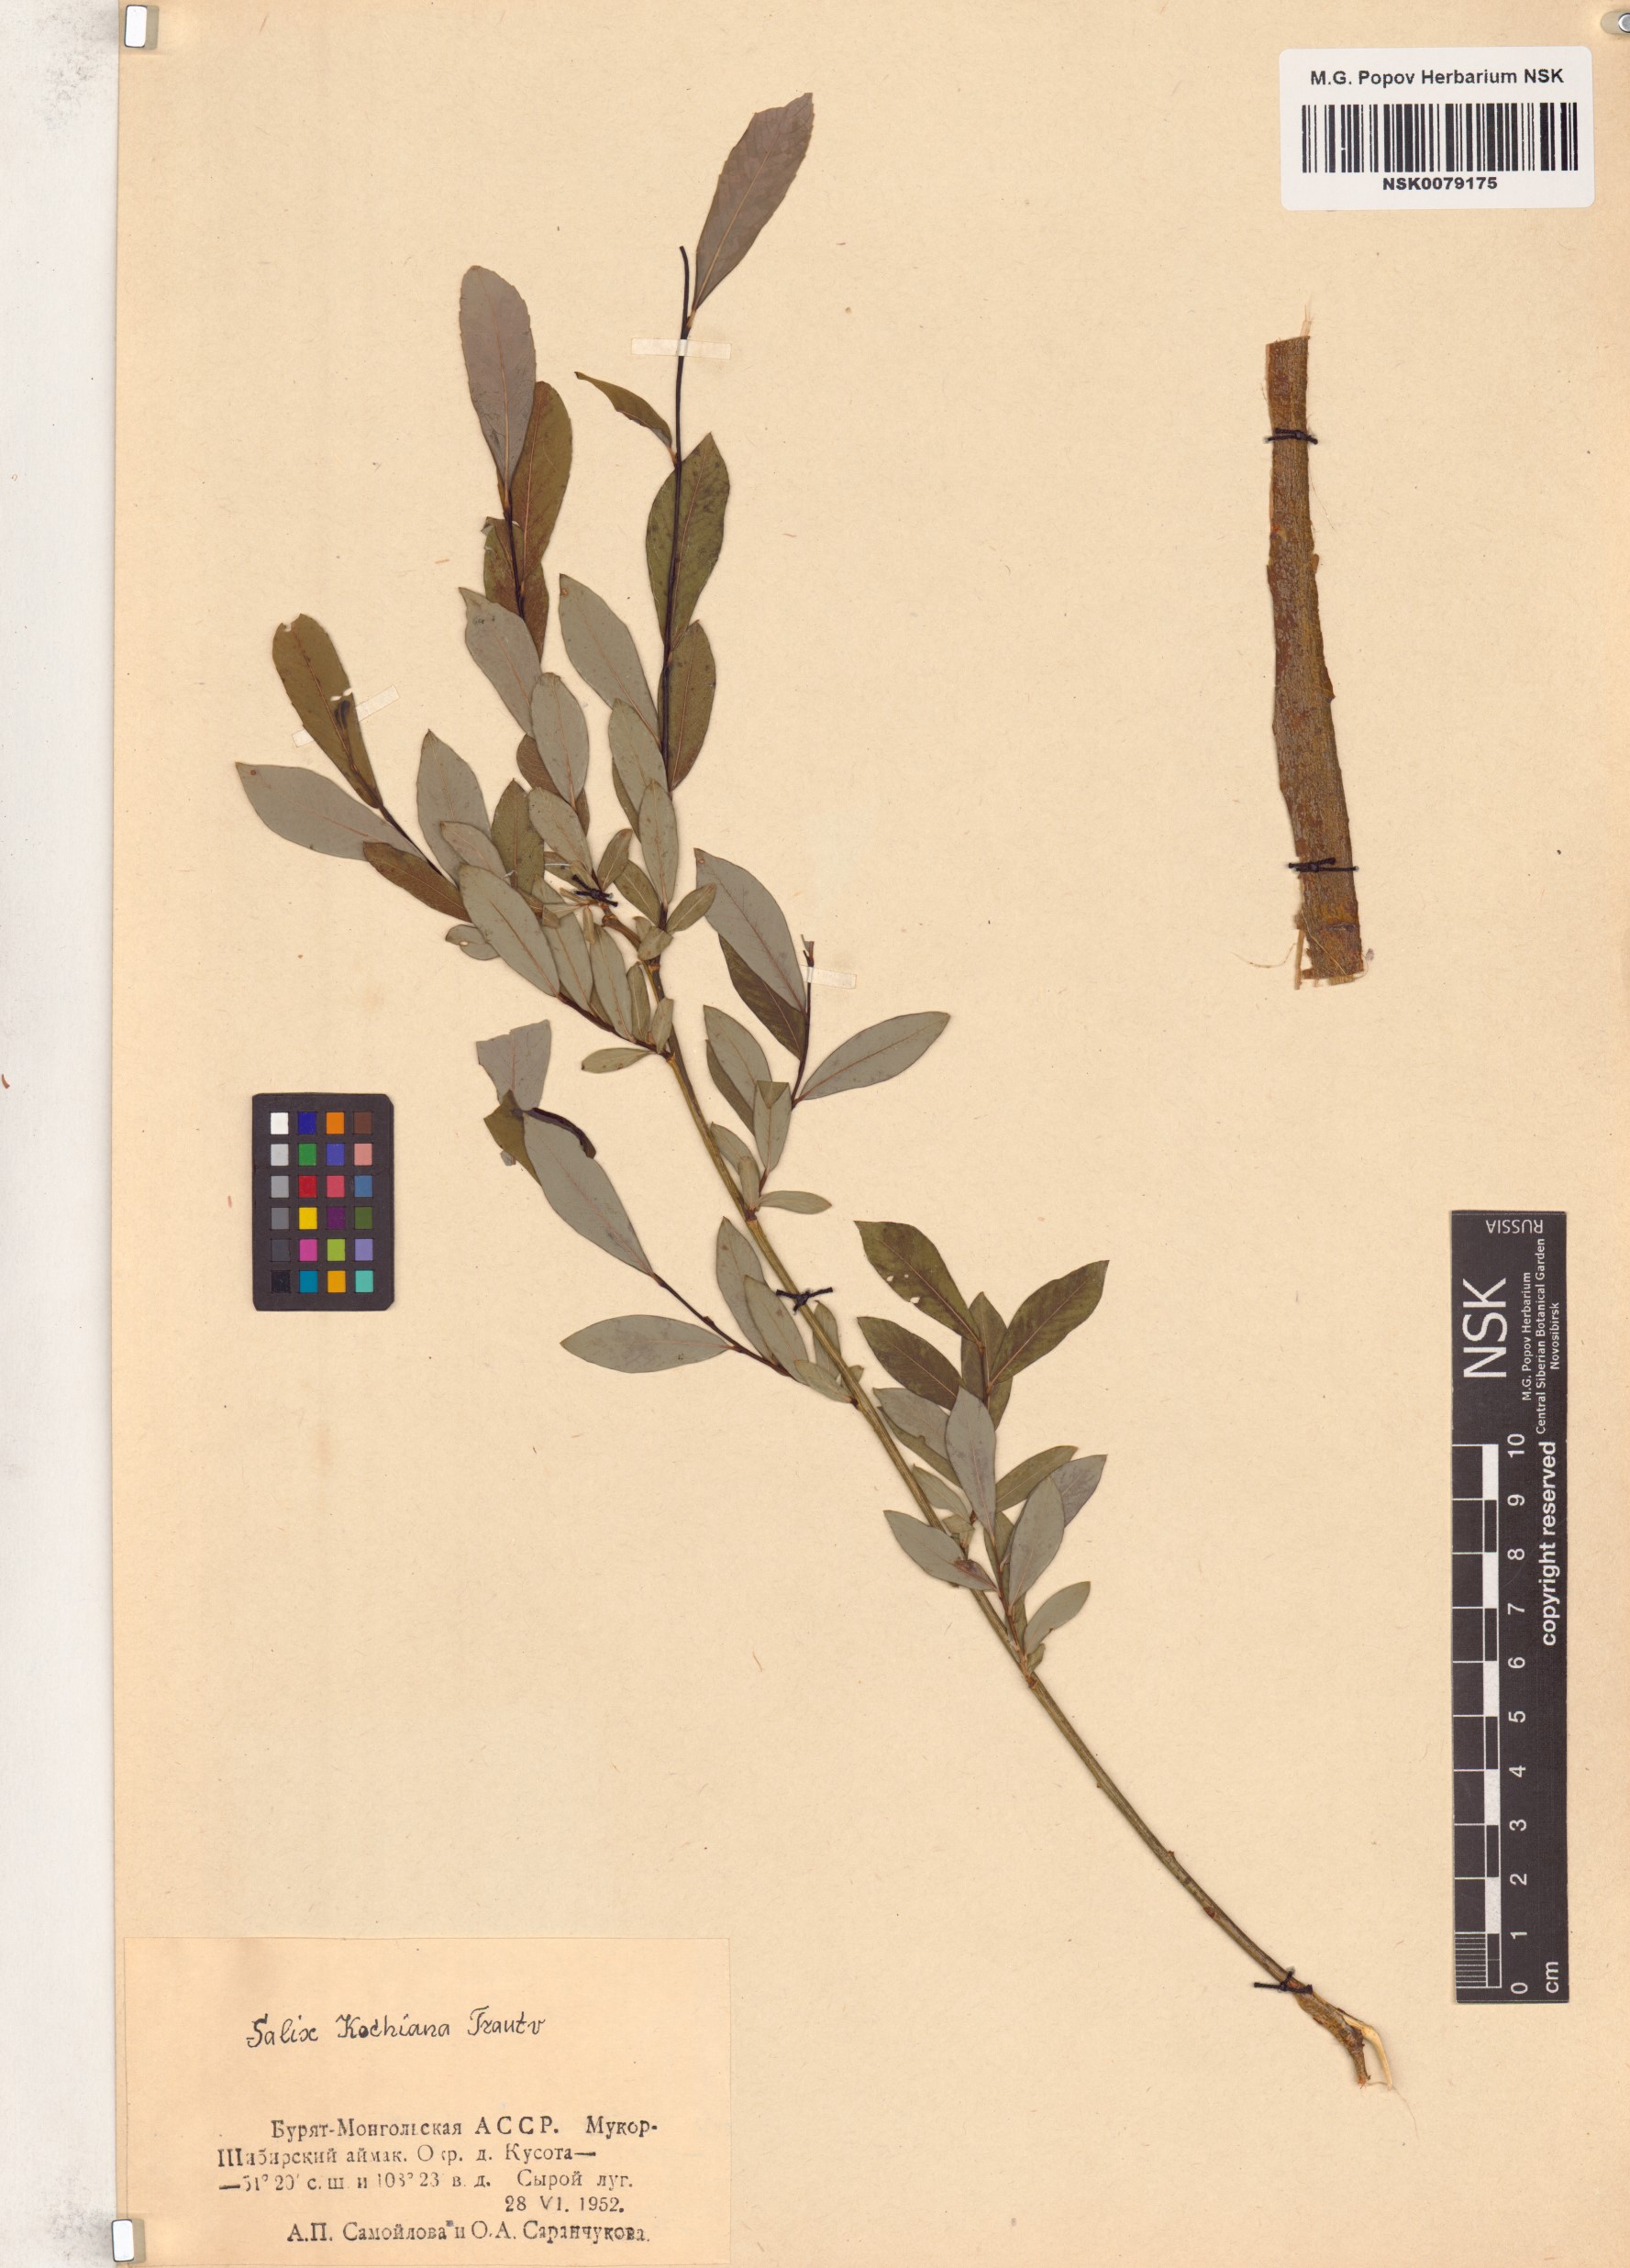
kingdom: Plantae
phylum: Tracheophyta
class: Magnoliopsida
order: Malpighiales
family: Salicaceae
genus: Salix
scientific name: Salix kochiana
